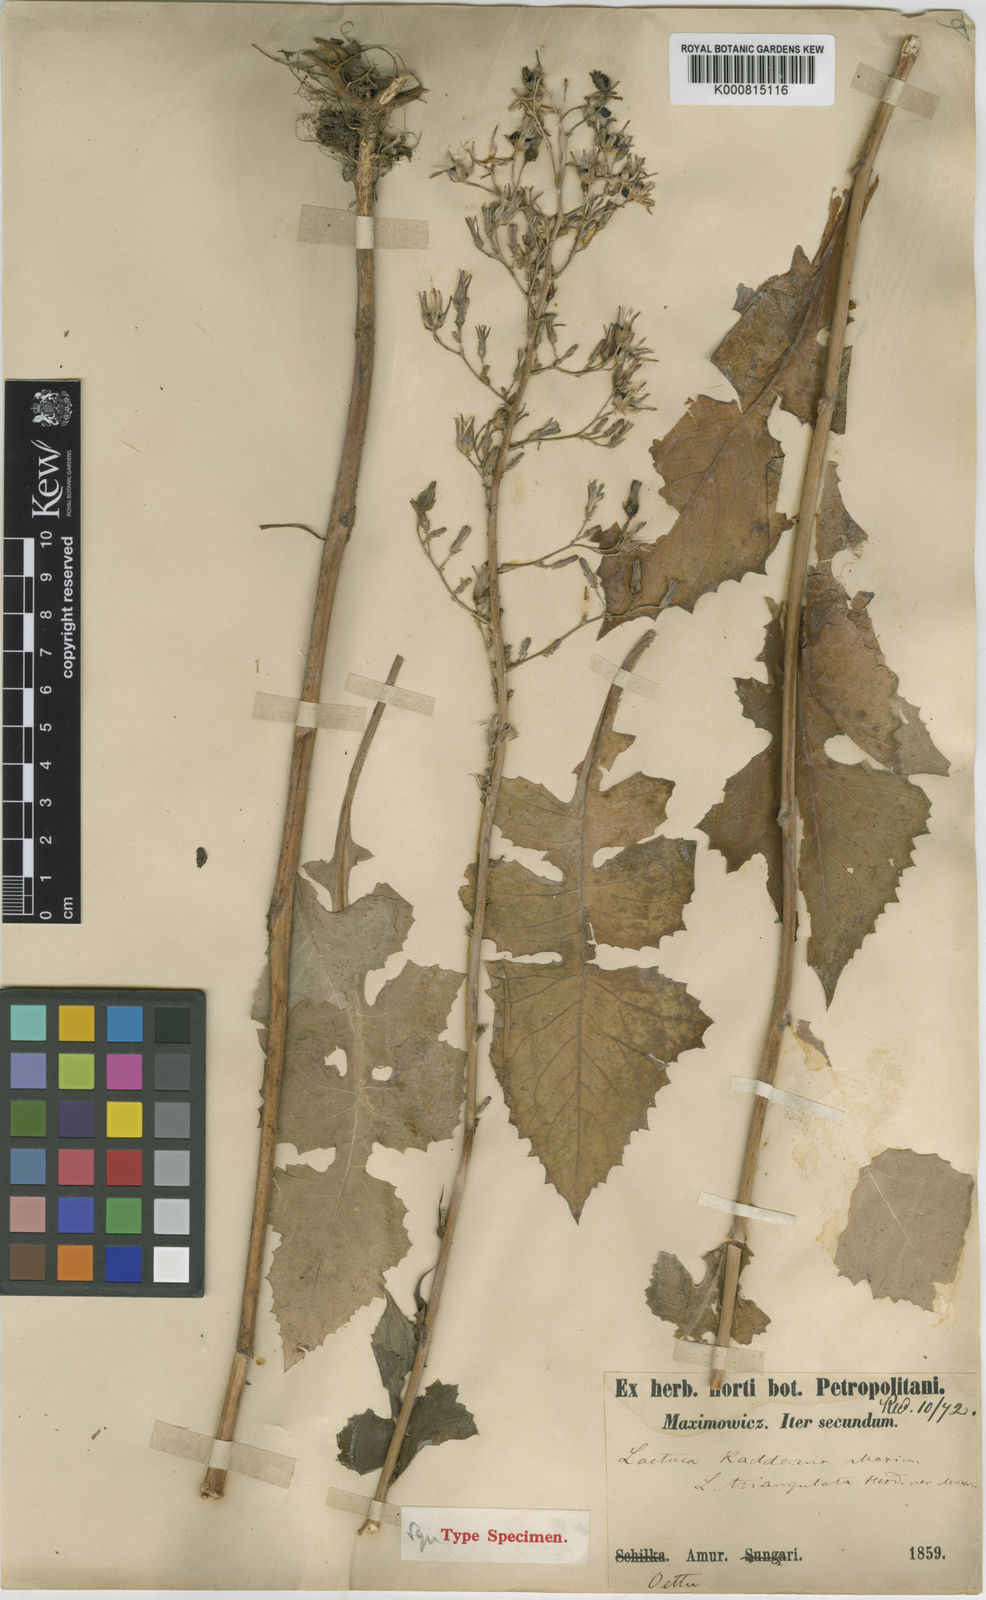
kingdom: Plantae
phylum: Tracheophyta
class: Magnoliopsida
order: Asterales
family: Asteraceae
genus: Lactuca
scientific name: Lactuca raddeana
